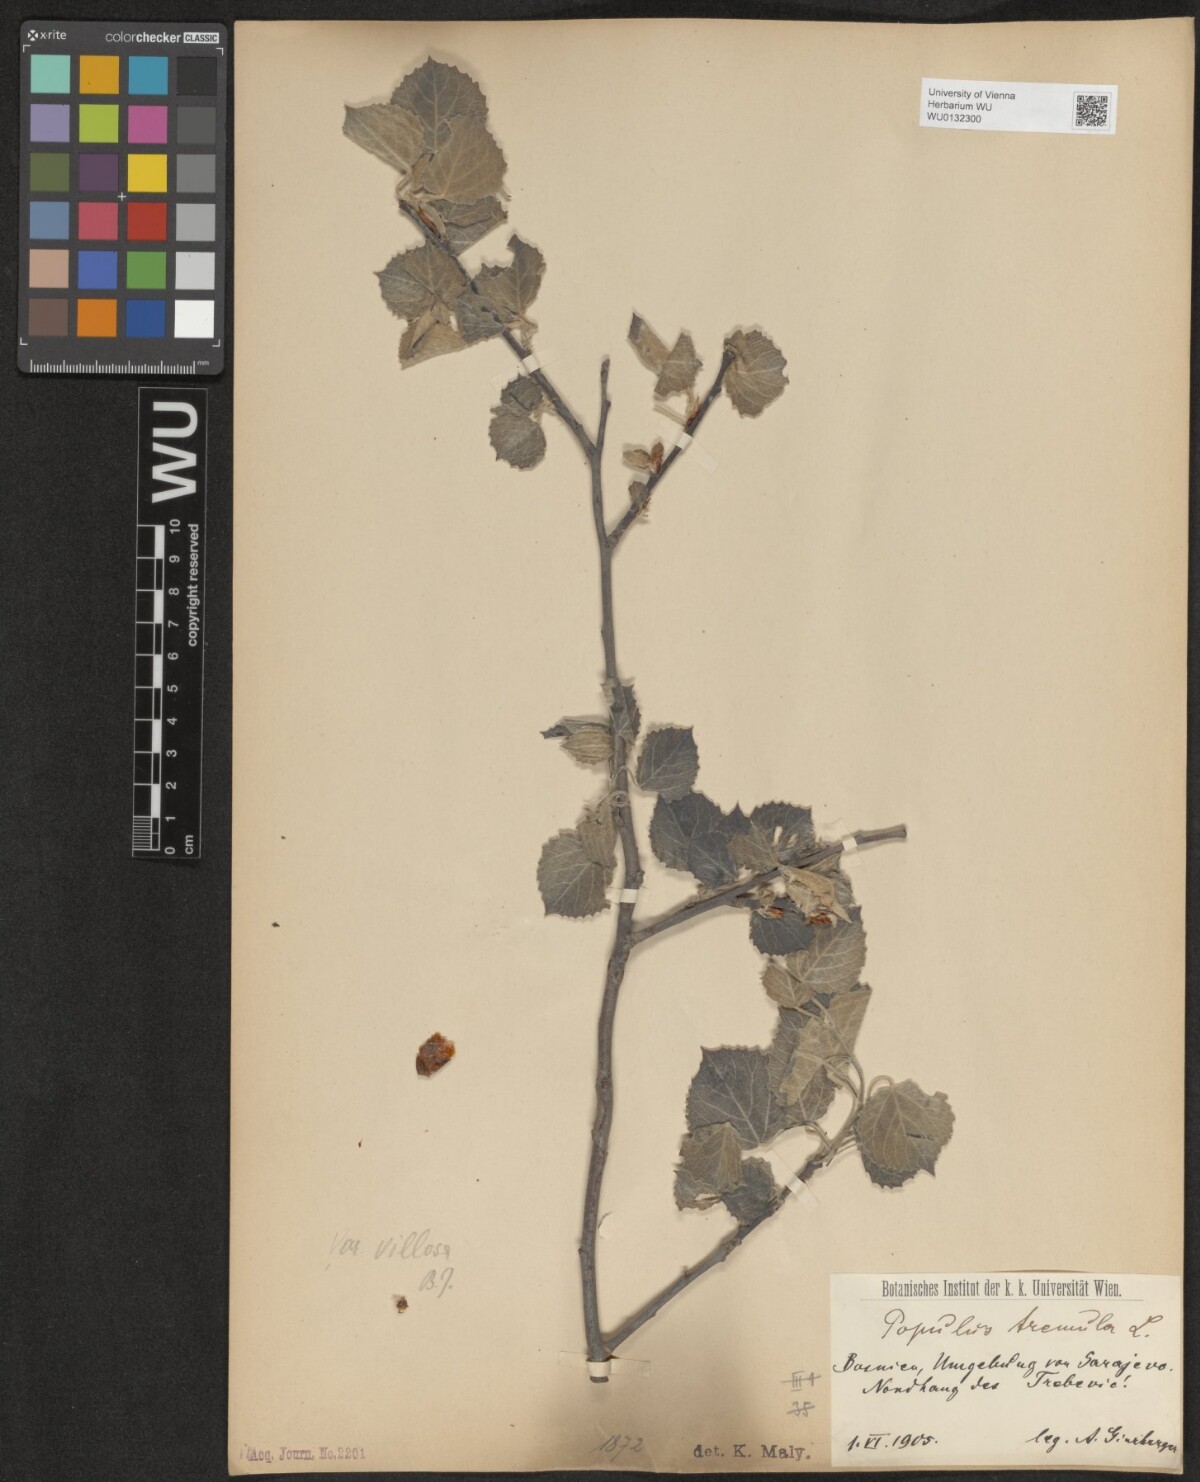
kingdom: Plantae
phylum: Tracheophyta
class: Magnoliopsida
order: Malpighiales
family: Salicaceae
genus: Populus
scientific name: Populus tremula
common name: European aspen
